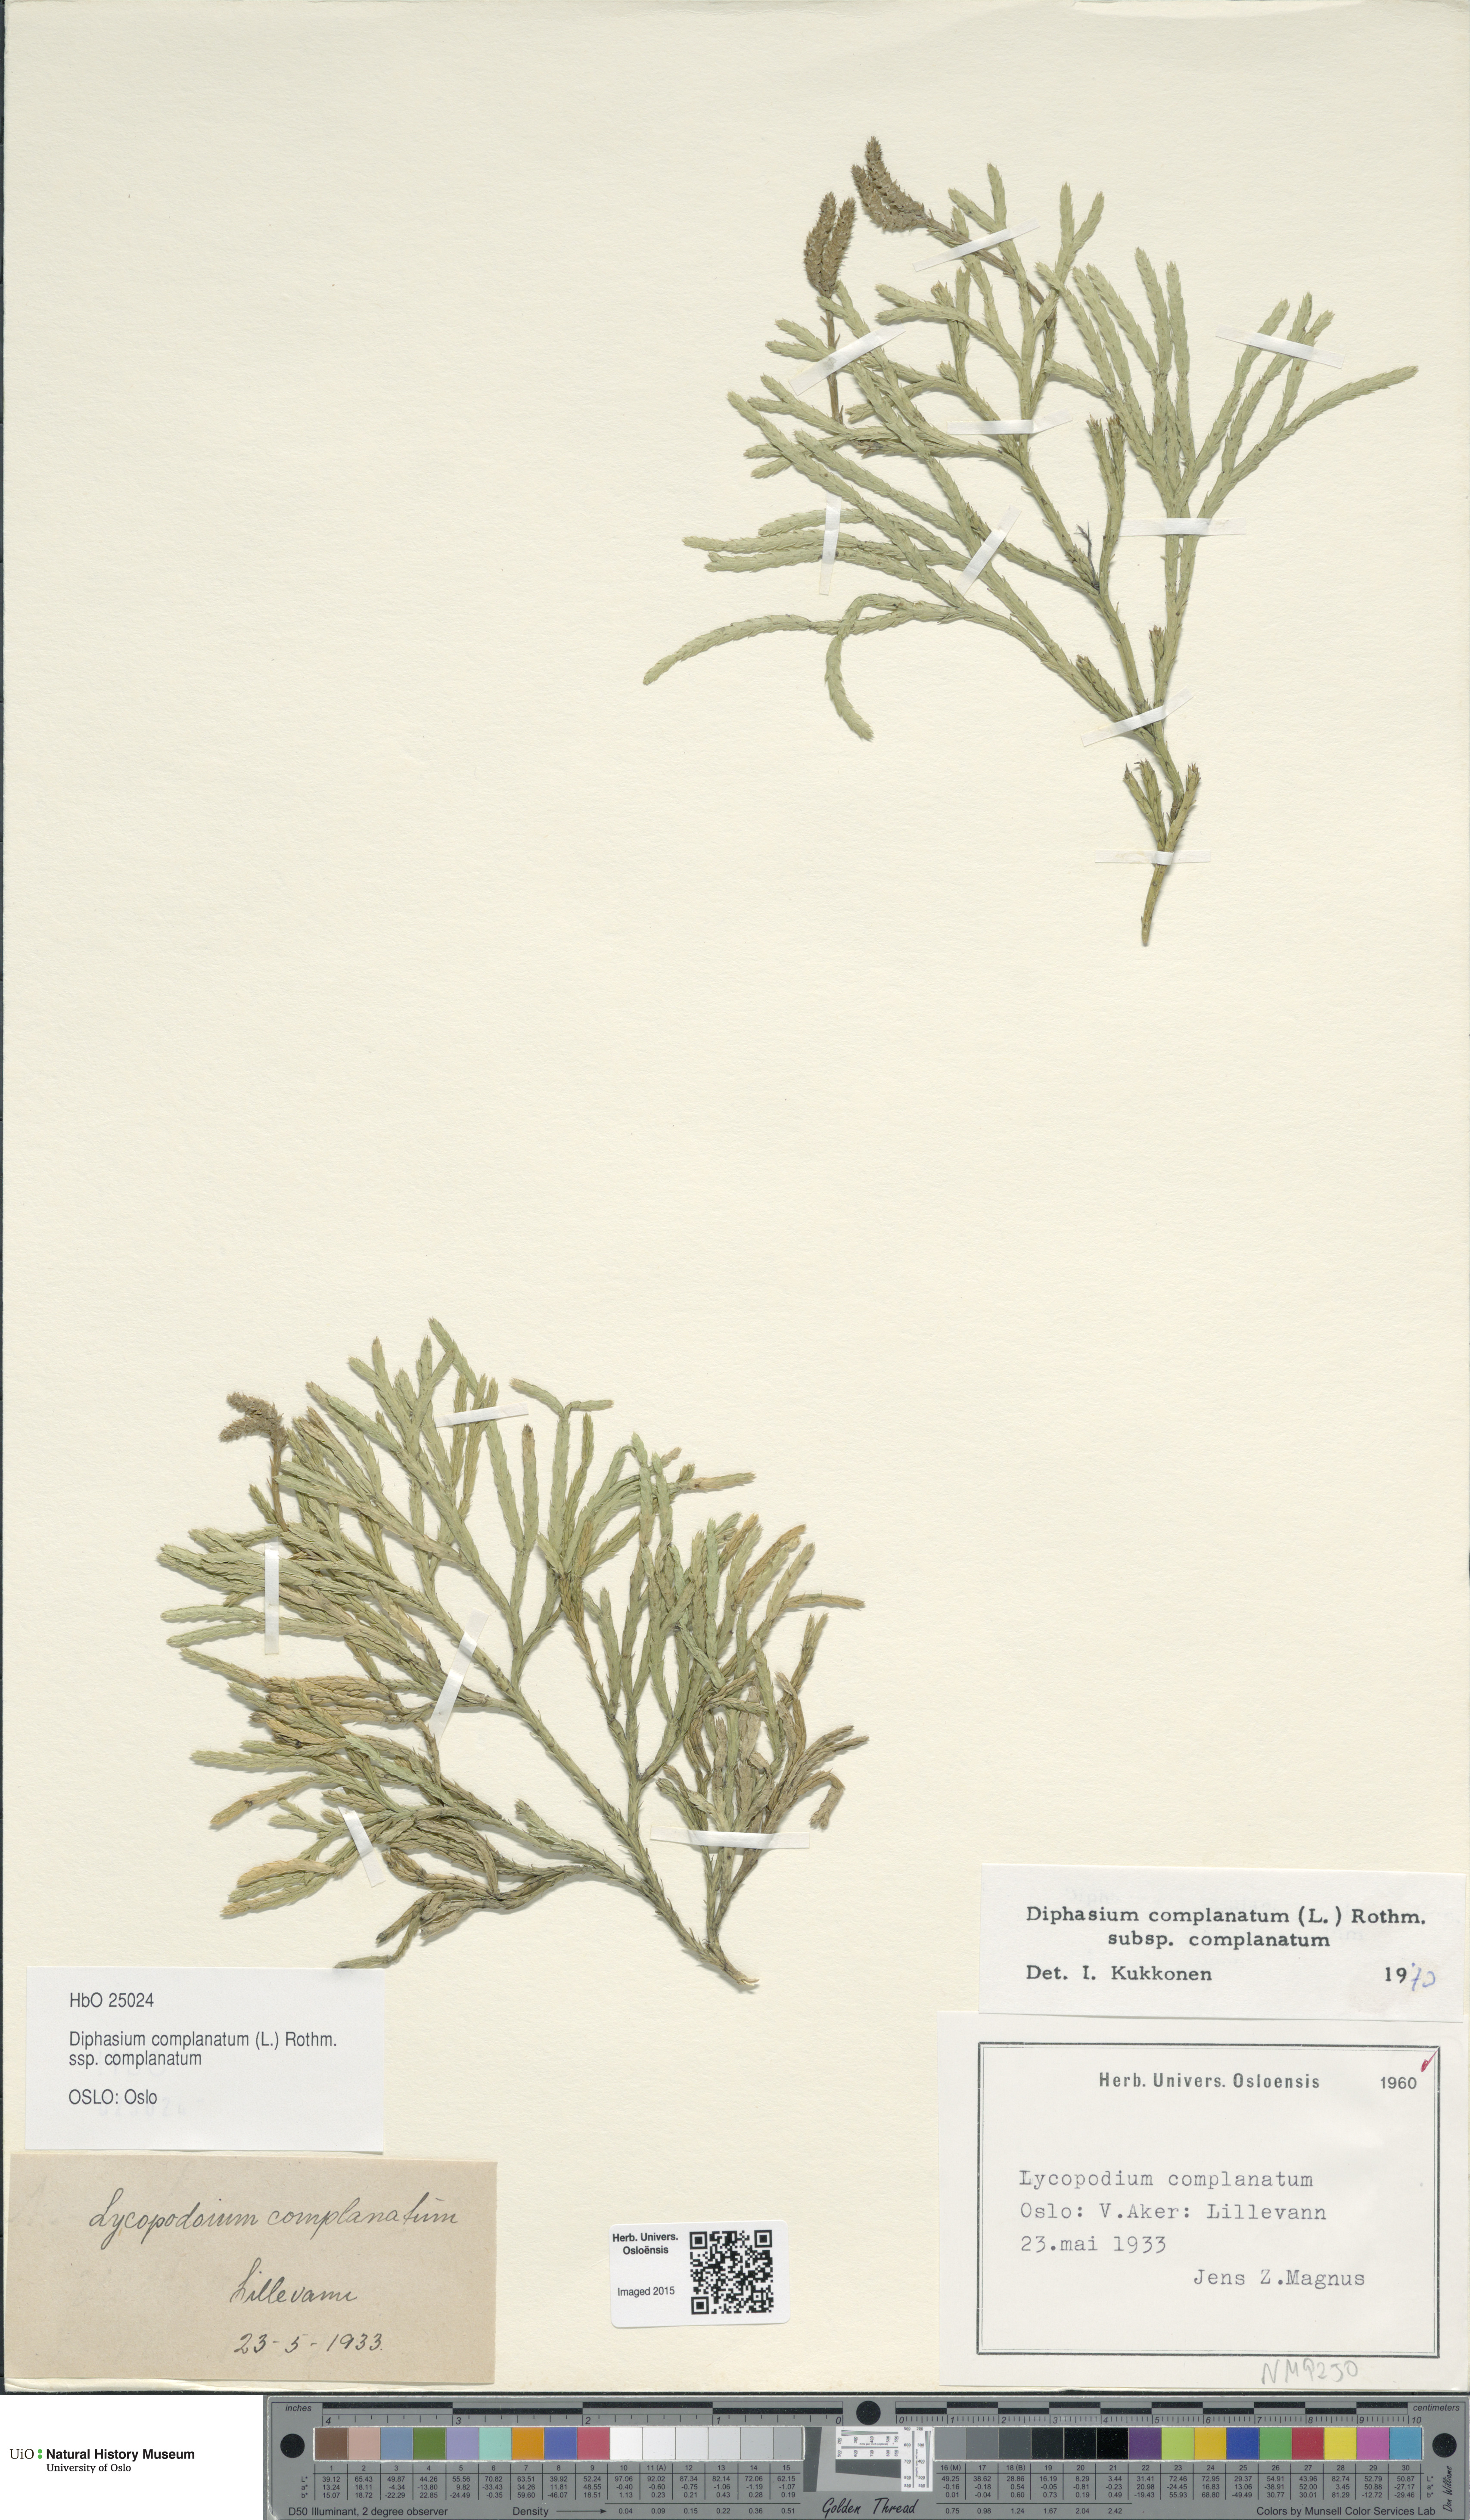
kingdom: Plantae
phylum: Tracheophyta
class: Lycopodiopsida
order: Lycopodiales
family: Lycopodiaceae
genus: Diphasiastrum
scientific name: Diphasiastrum complanatum
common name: Northern running-pine
